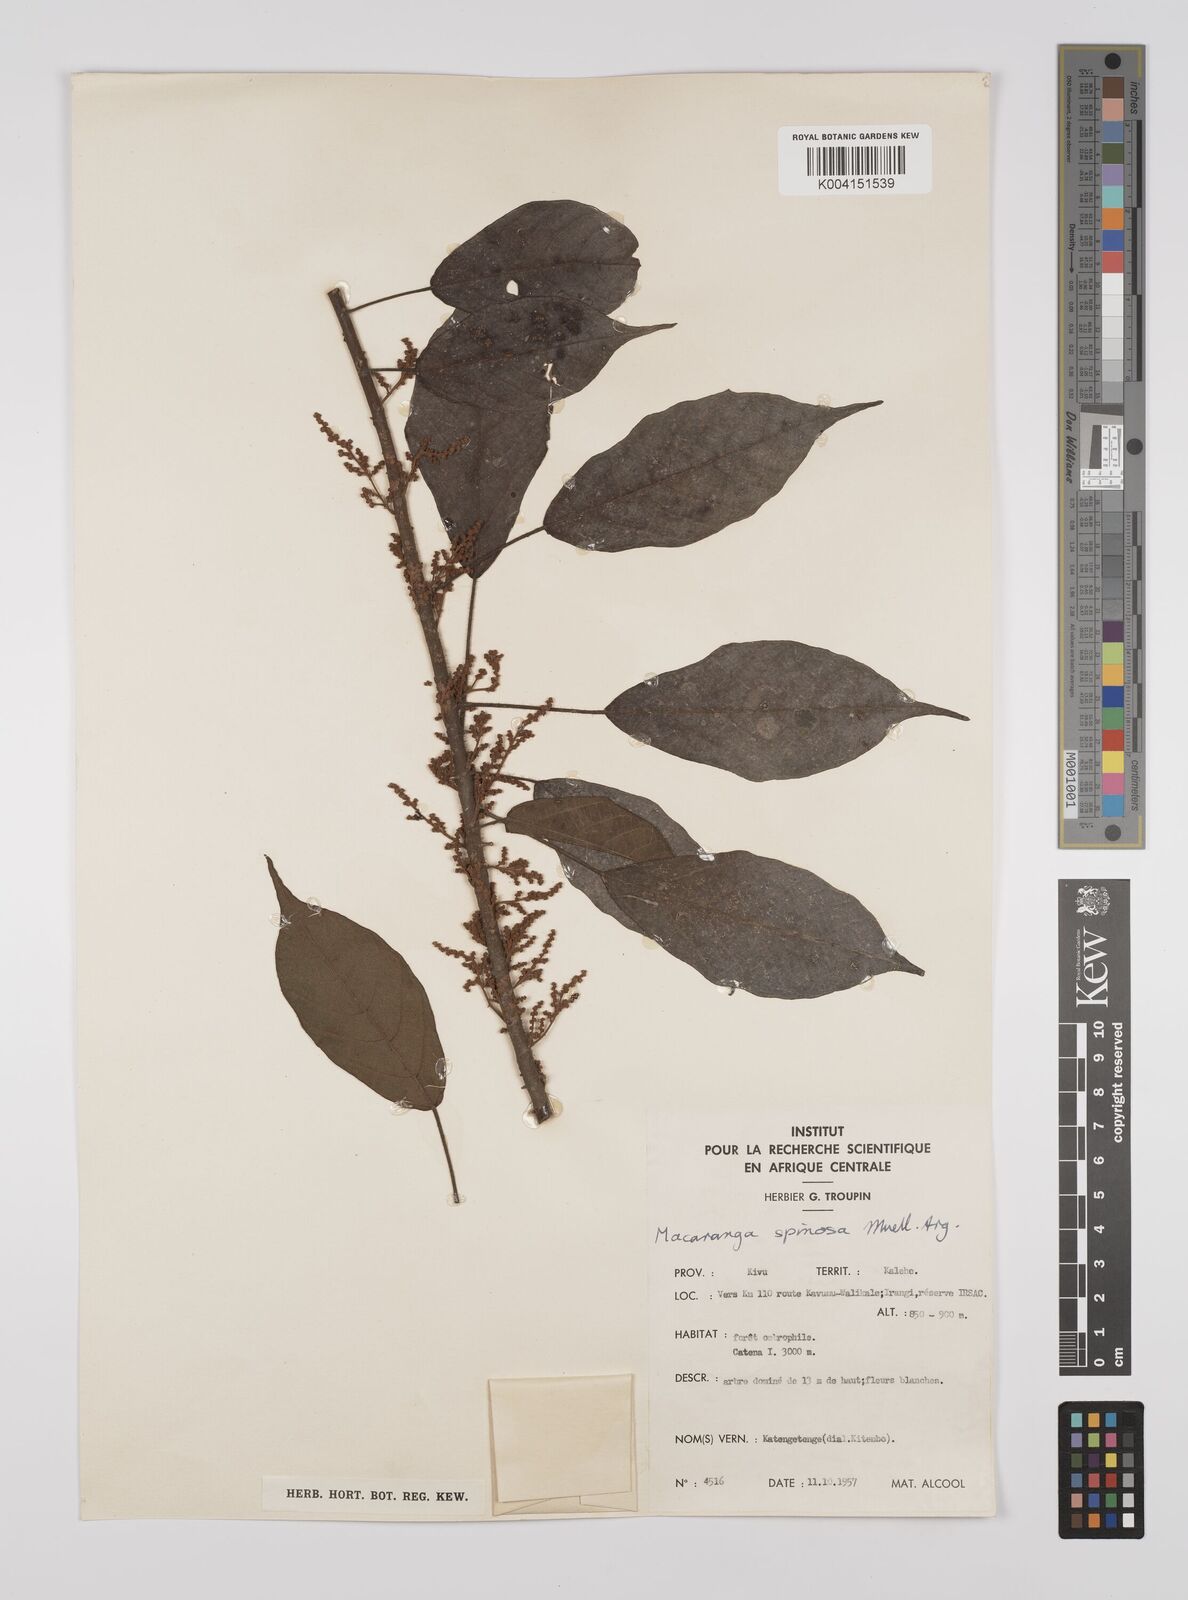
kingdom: Plantae
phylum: Tracheophyta
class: Magnoliopsida
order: Malpighiales
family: Euphorbiaceae
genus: Macaranga
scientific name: Macaranga spinosa
